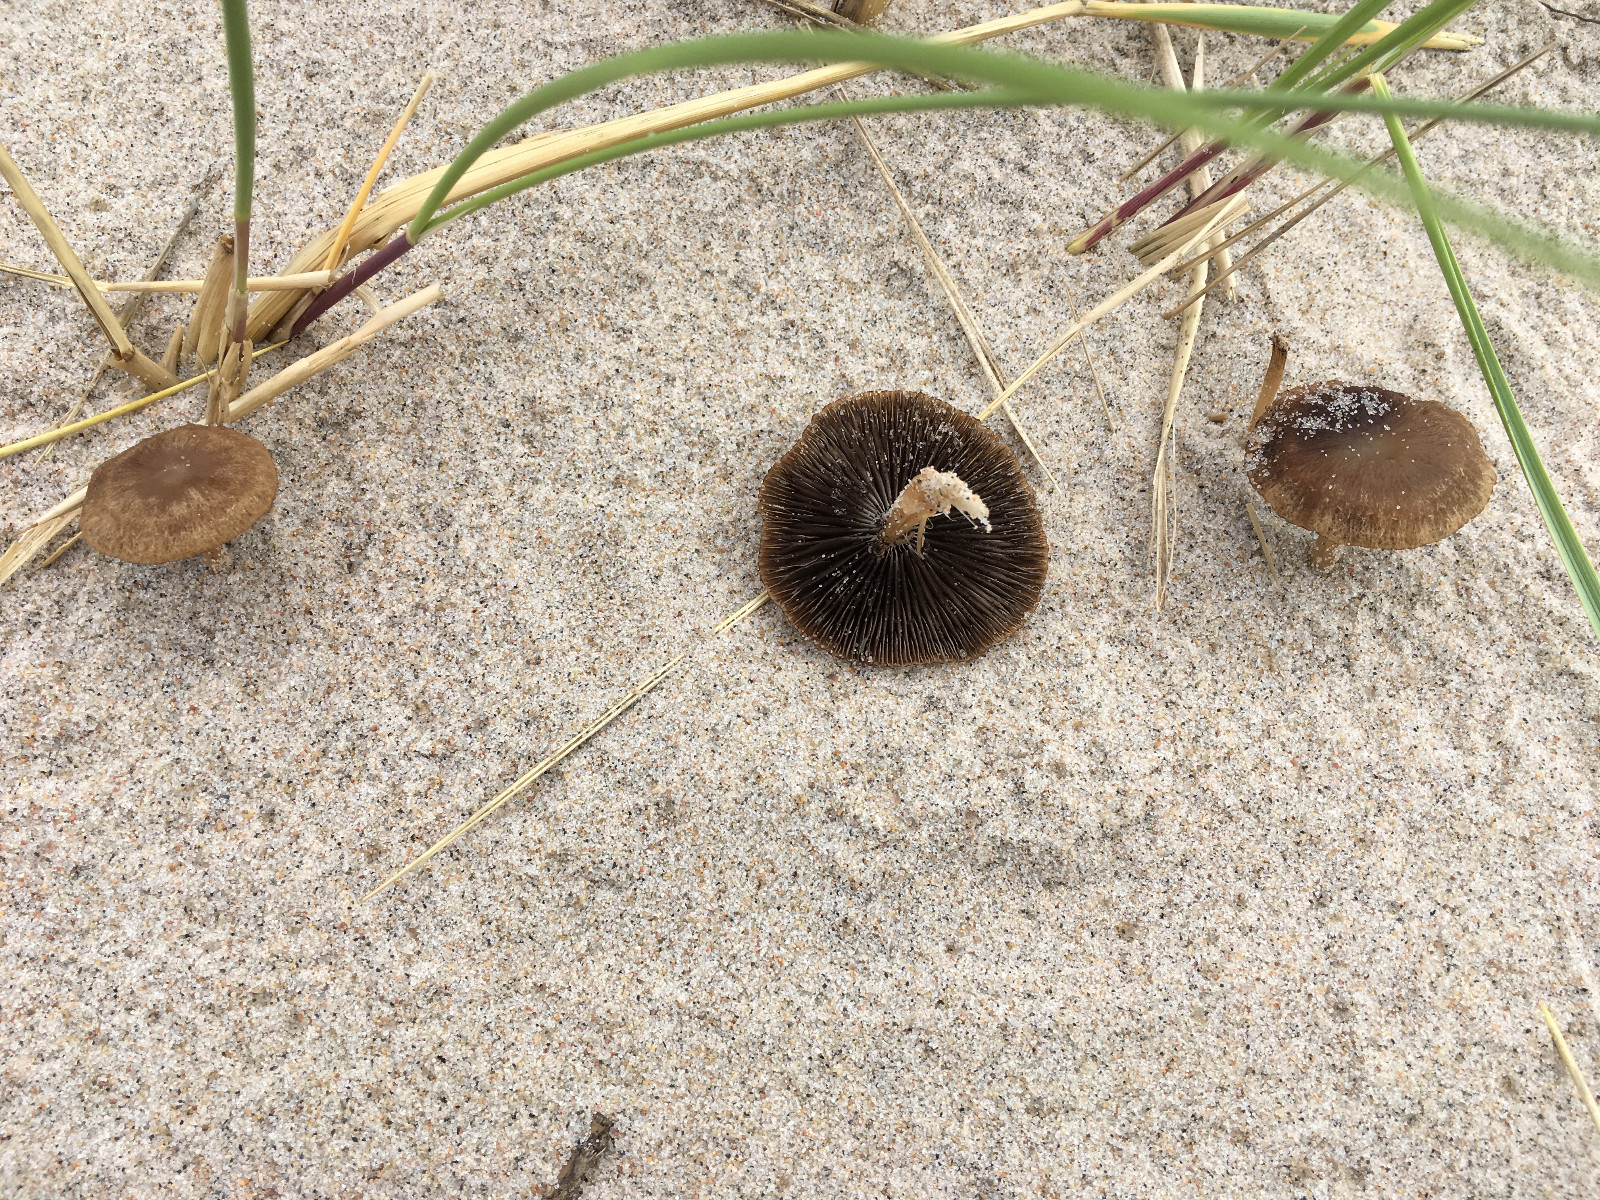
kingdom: Fungi
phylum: Basidiomycota
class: Agaricomycetes
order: Agaricales
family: Psathyrellaceae
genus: Psathyrella
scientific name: Psathyrella ammophila
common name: klit-mørkhat
